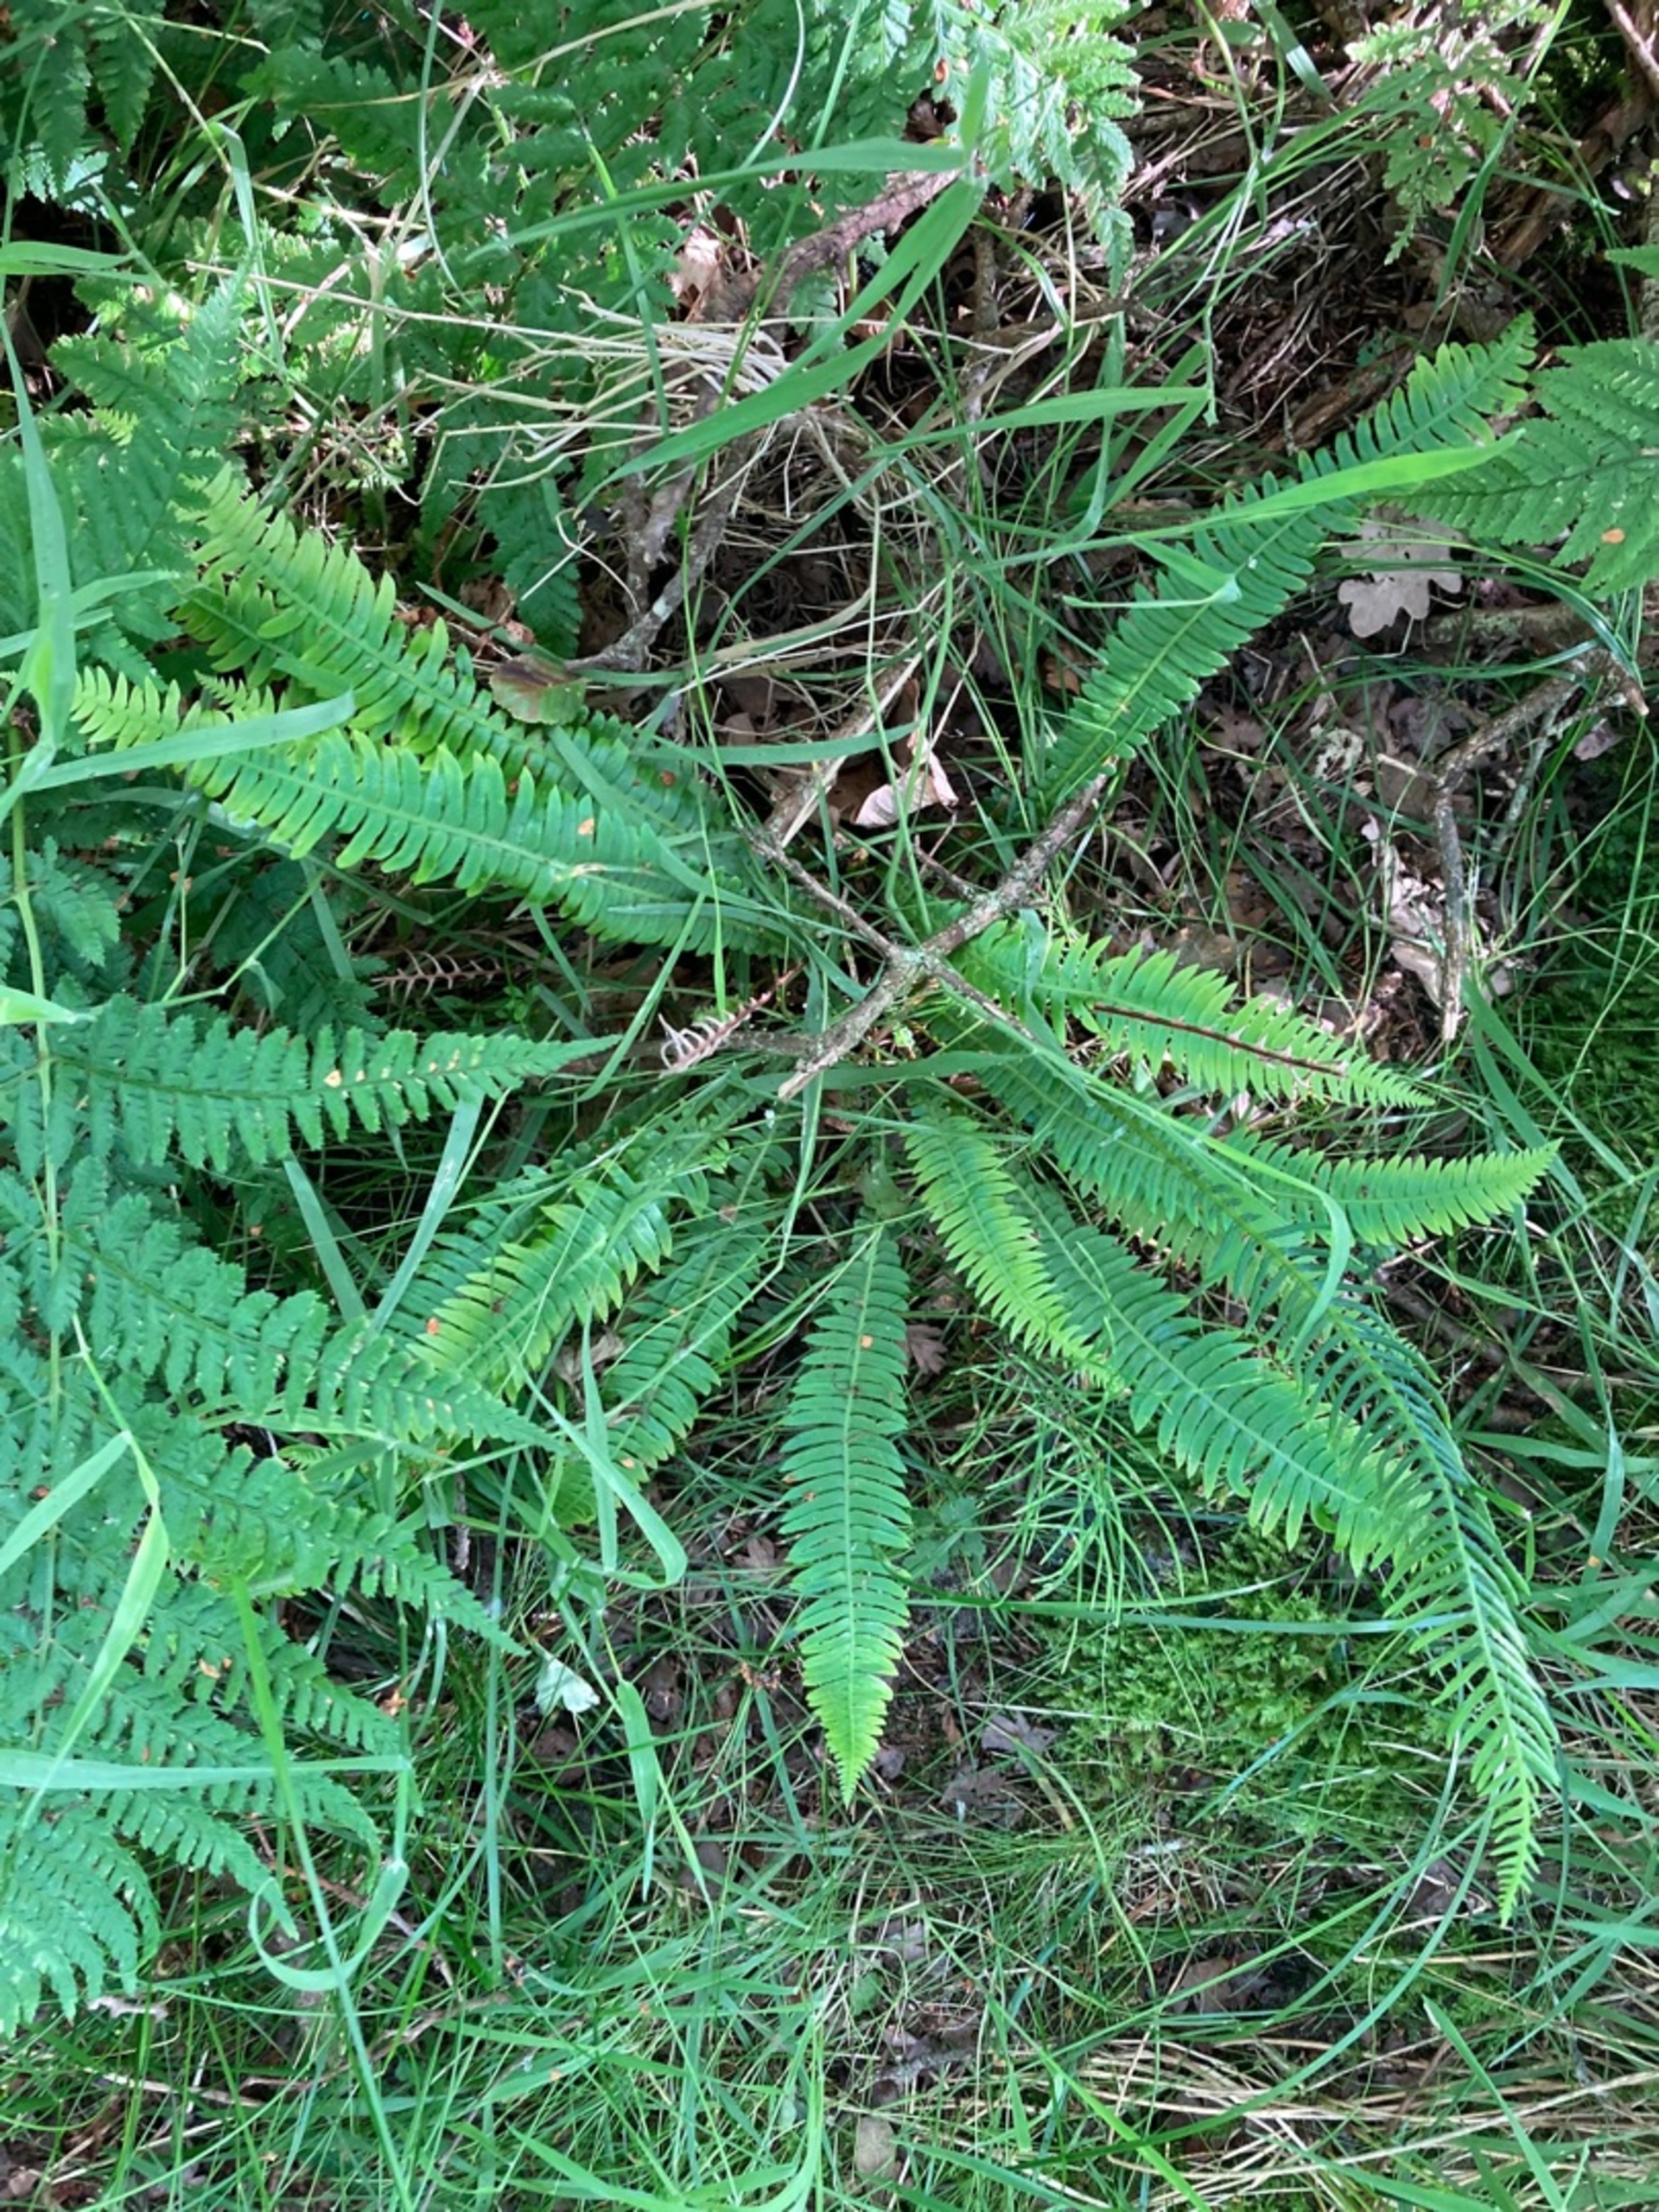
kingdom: Plantae
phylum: Tracheophyta
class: Polypodiopsida
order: Polypodiales
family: Blechnaceae
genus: Struthiopteris
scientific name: Struthiopteris spicant
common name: Kambregne
